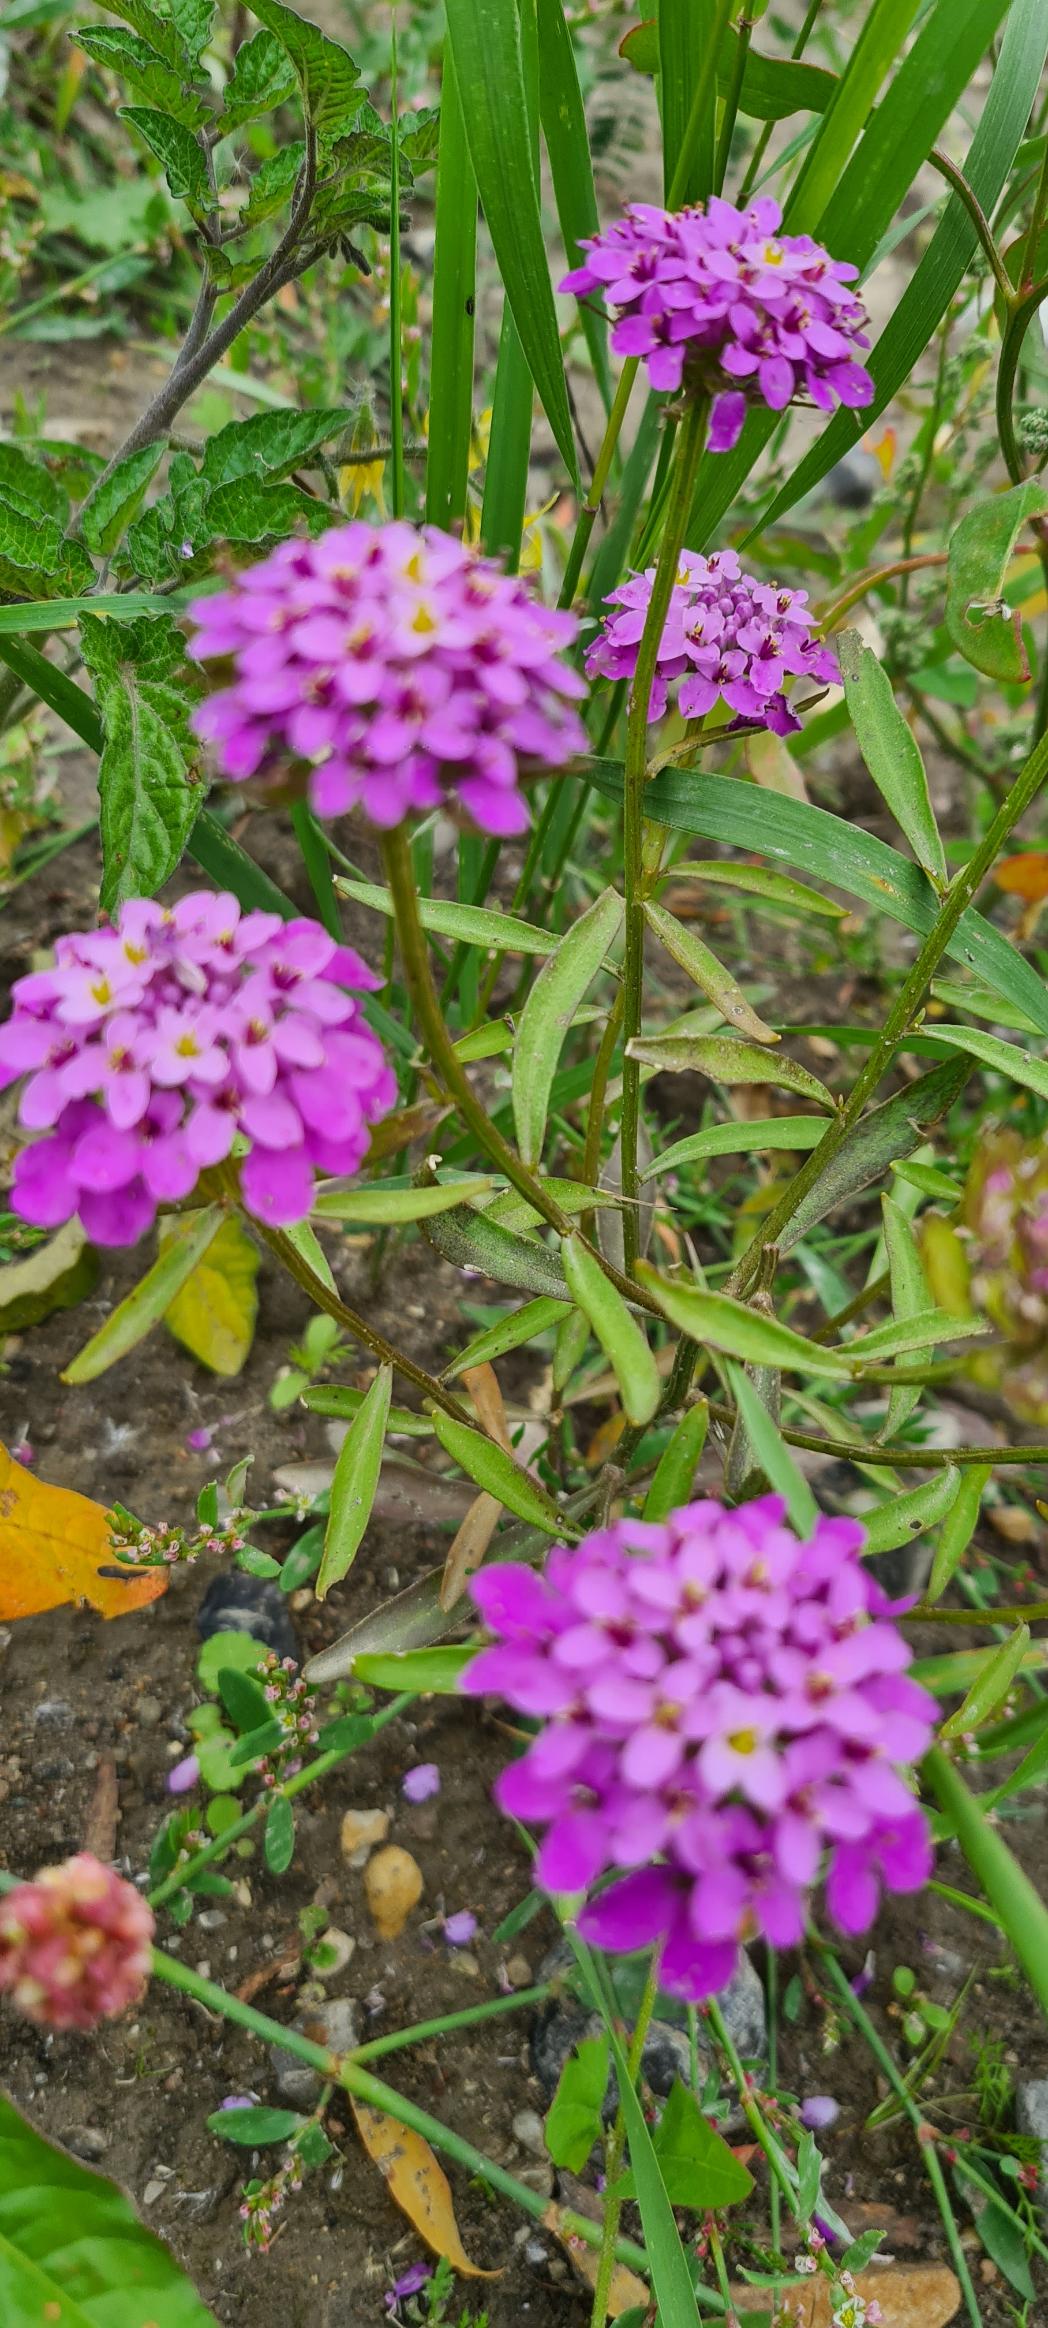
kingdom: Plantae
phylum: Tracheophyta
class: Magnoliopsida
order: Brassicales
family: Brassicaceae
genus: Iberis
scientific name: Iberis umbellata
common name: Skærm-sløjfeblomst
